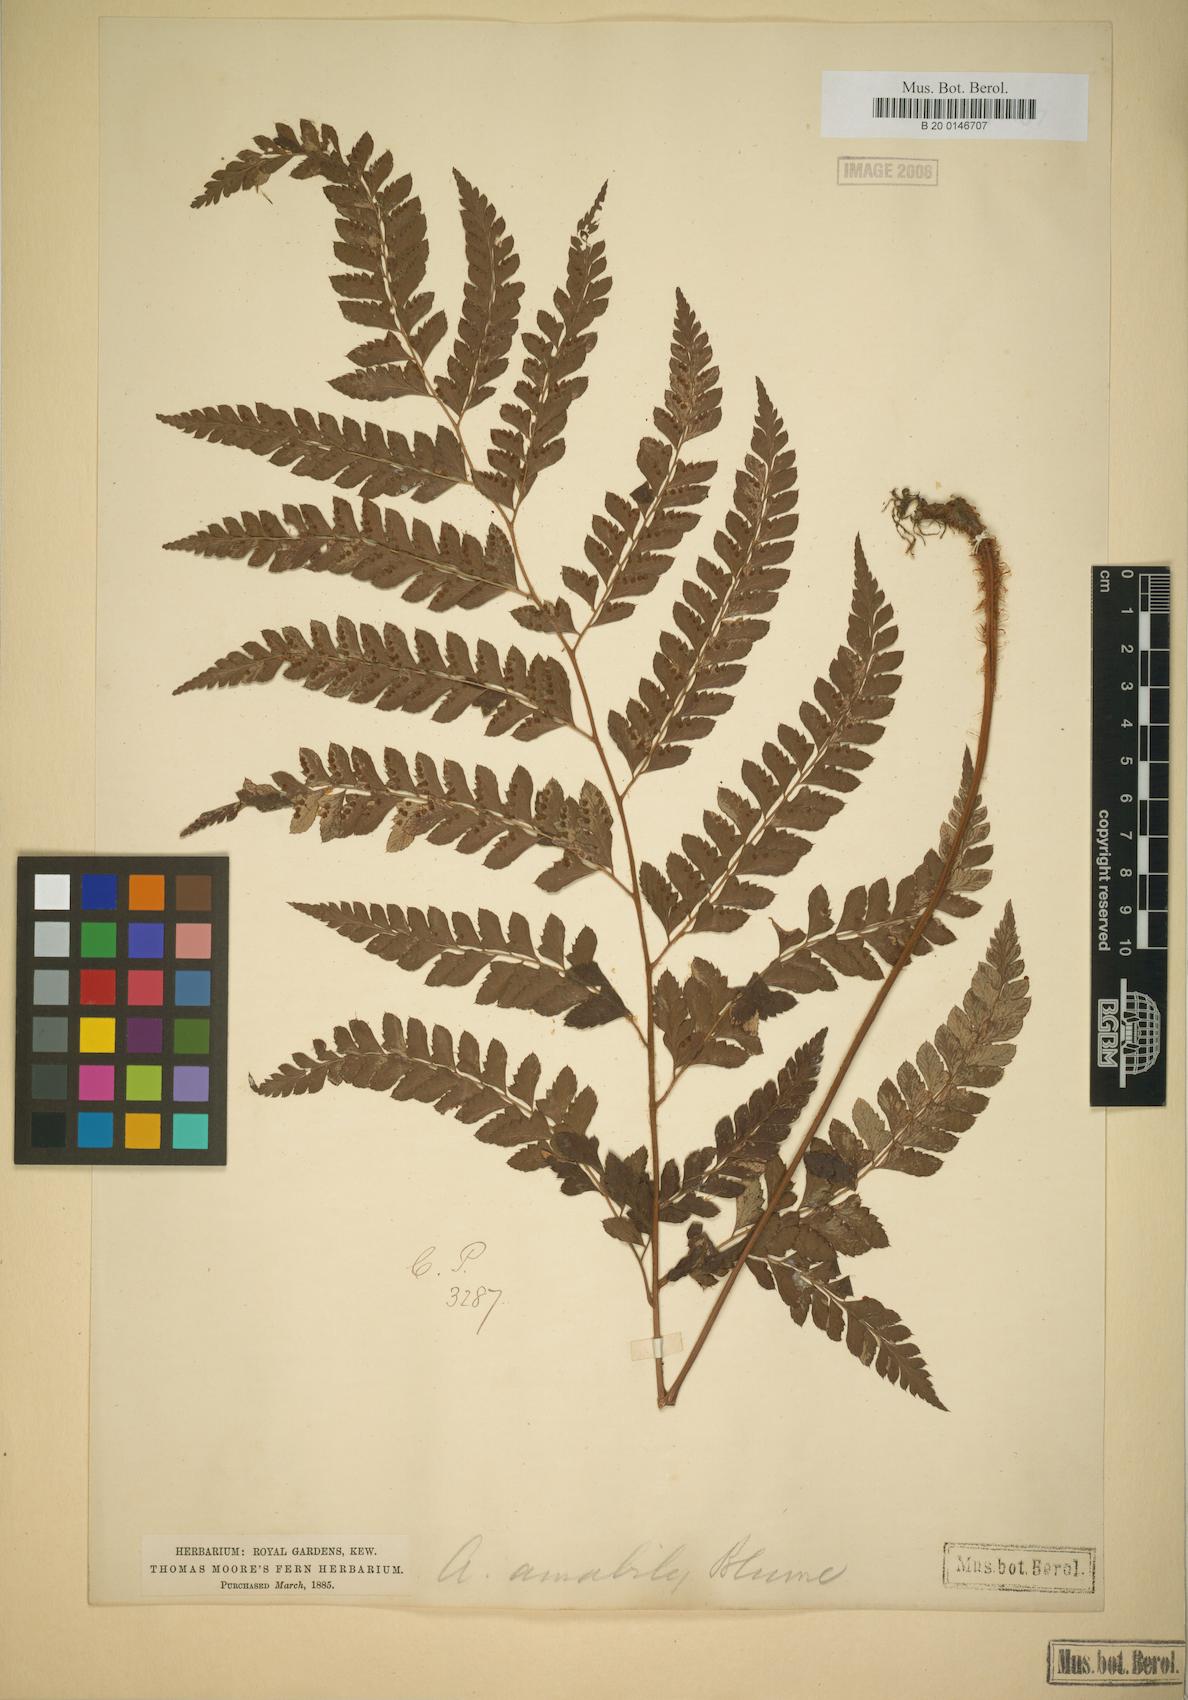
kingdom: Plantae
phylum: Tracheophyta
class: Polypodiopsida
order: Polypodiales
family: Dryopteridaceae
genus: Arachniodes
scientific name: Arachniodes amabilis
